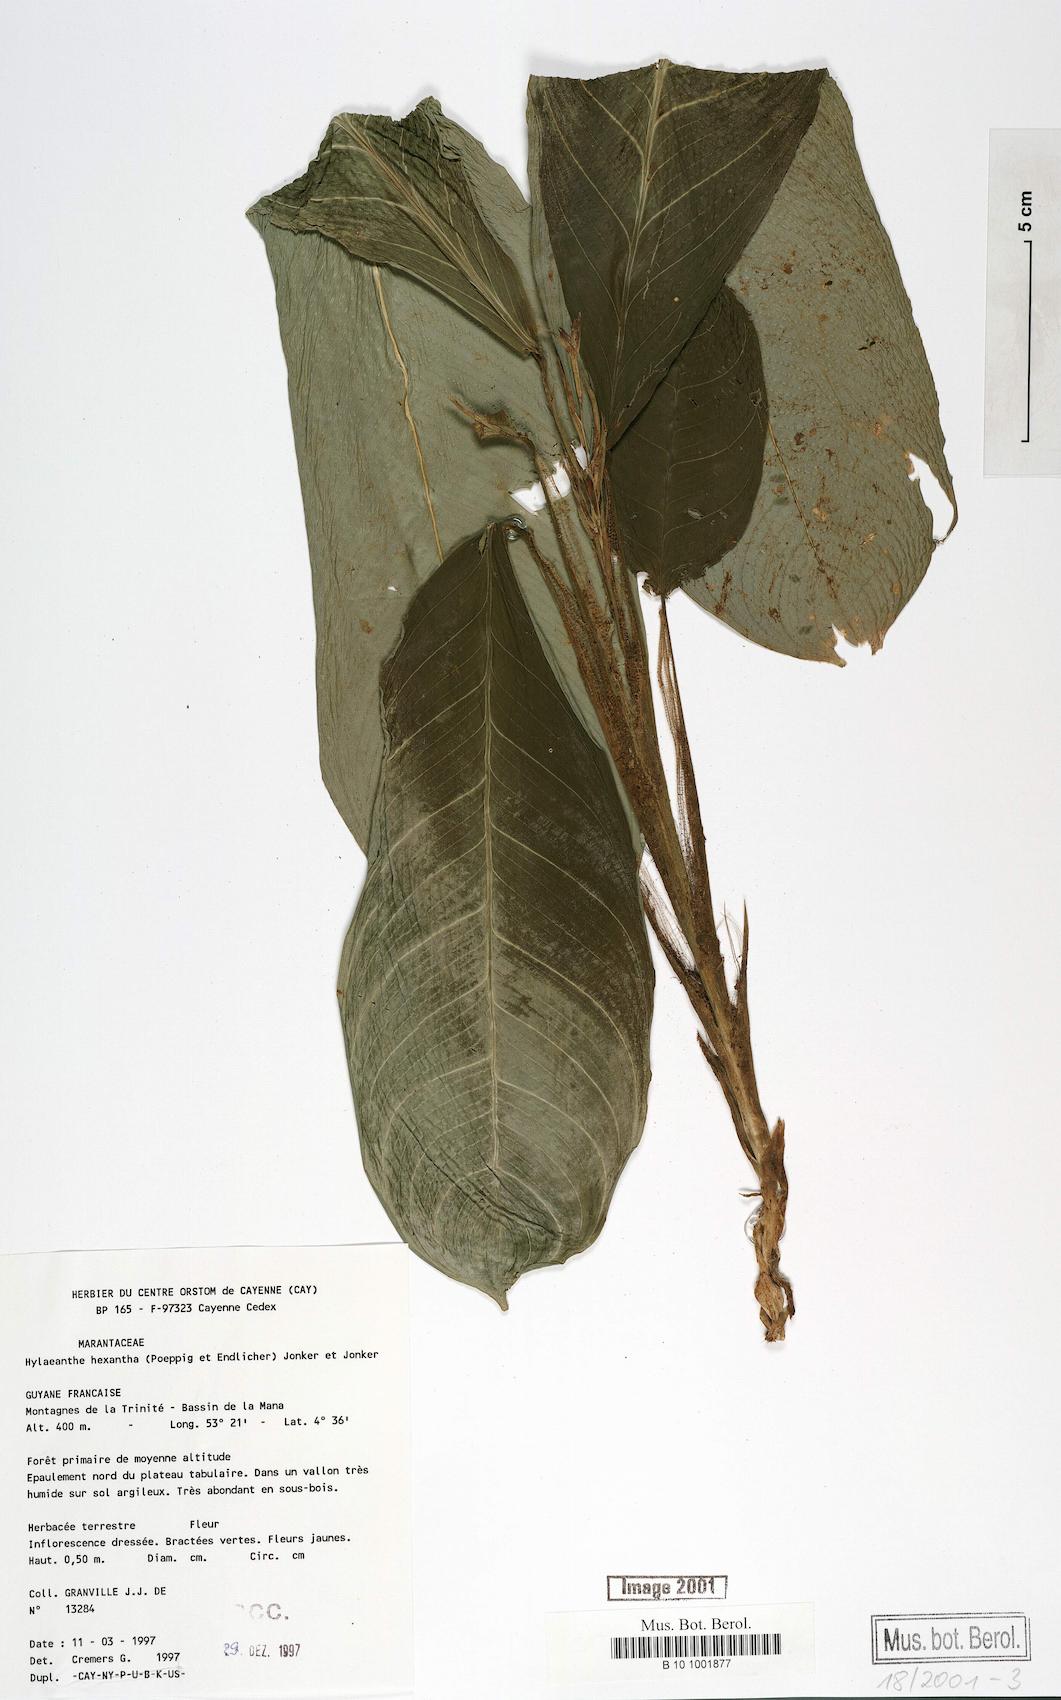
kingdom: Plantae
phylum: Tracheophyta
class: Liliopsida
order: Zingiberales
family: Marantaceae
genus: Hylaeanthe
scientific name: Hylaeanthe hexantha
